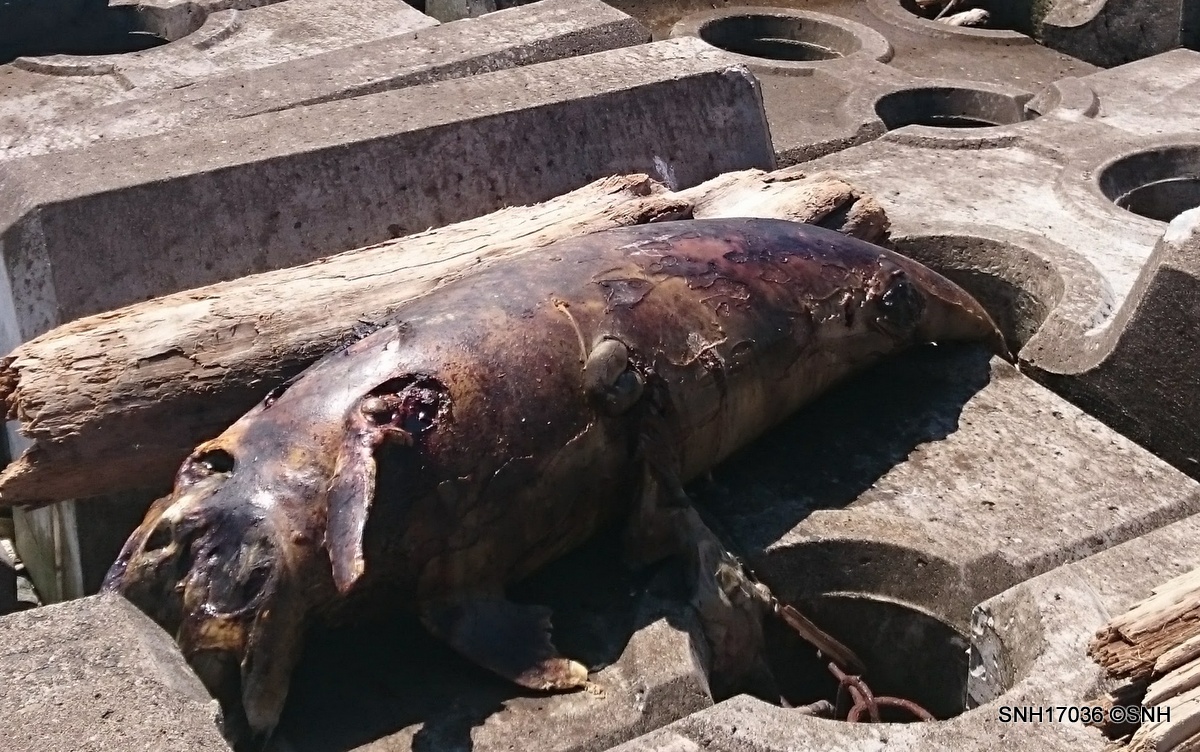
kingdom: Animalia
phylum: Chordata
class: Mammalia
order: Cetacea
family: Delphinidae
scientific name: Delphinidae
